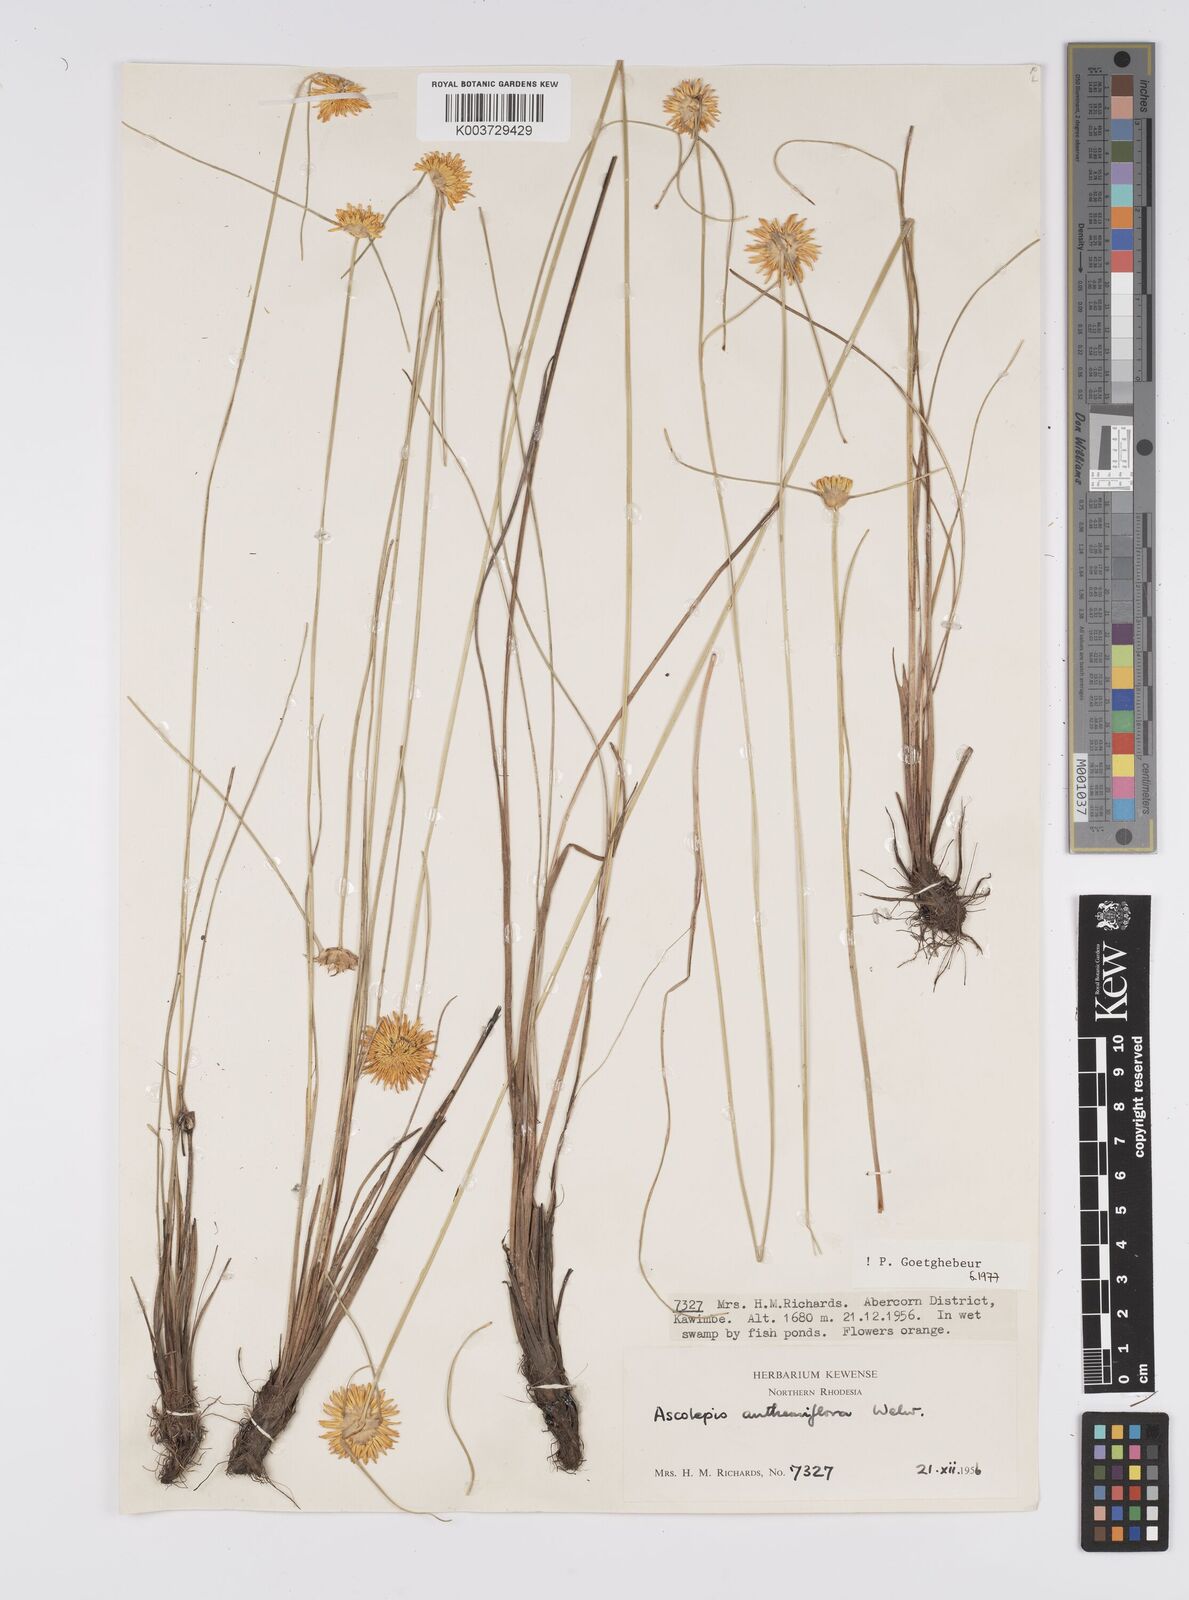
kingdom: Plantae
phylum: Tracheophyta
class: Liliopsida
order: Poales
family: Cyperaceae
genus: Cyperus
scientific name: Cyperus
